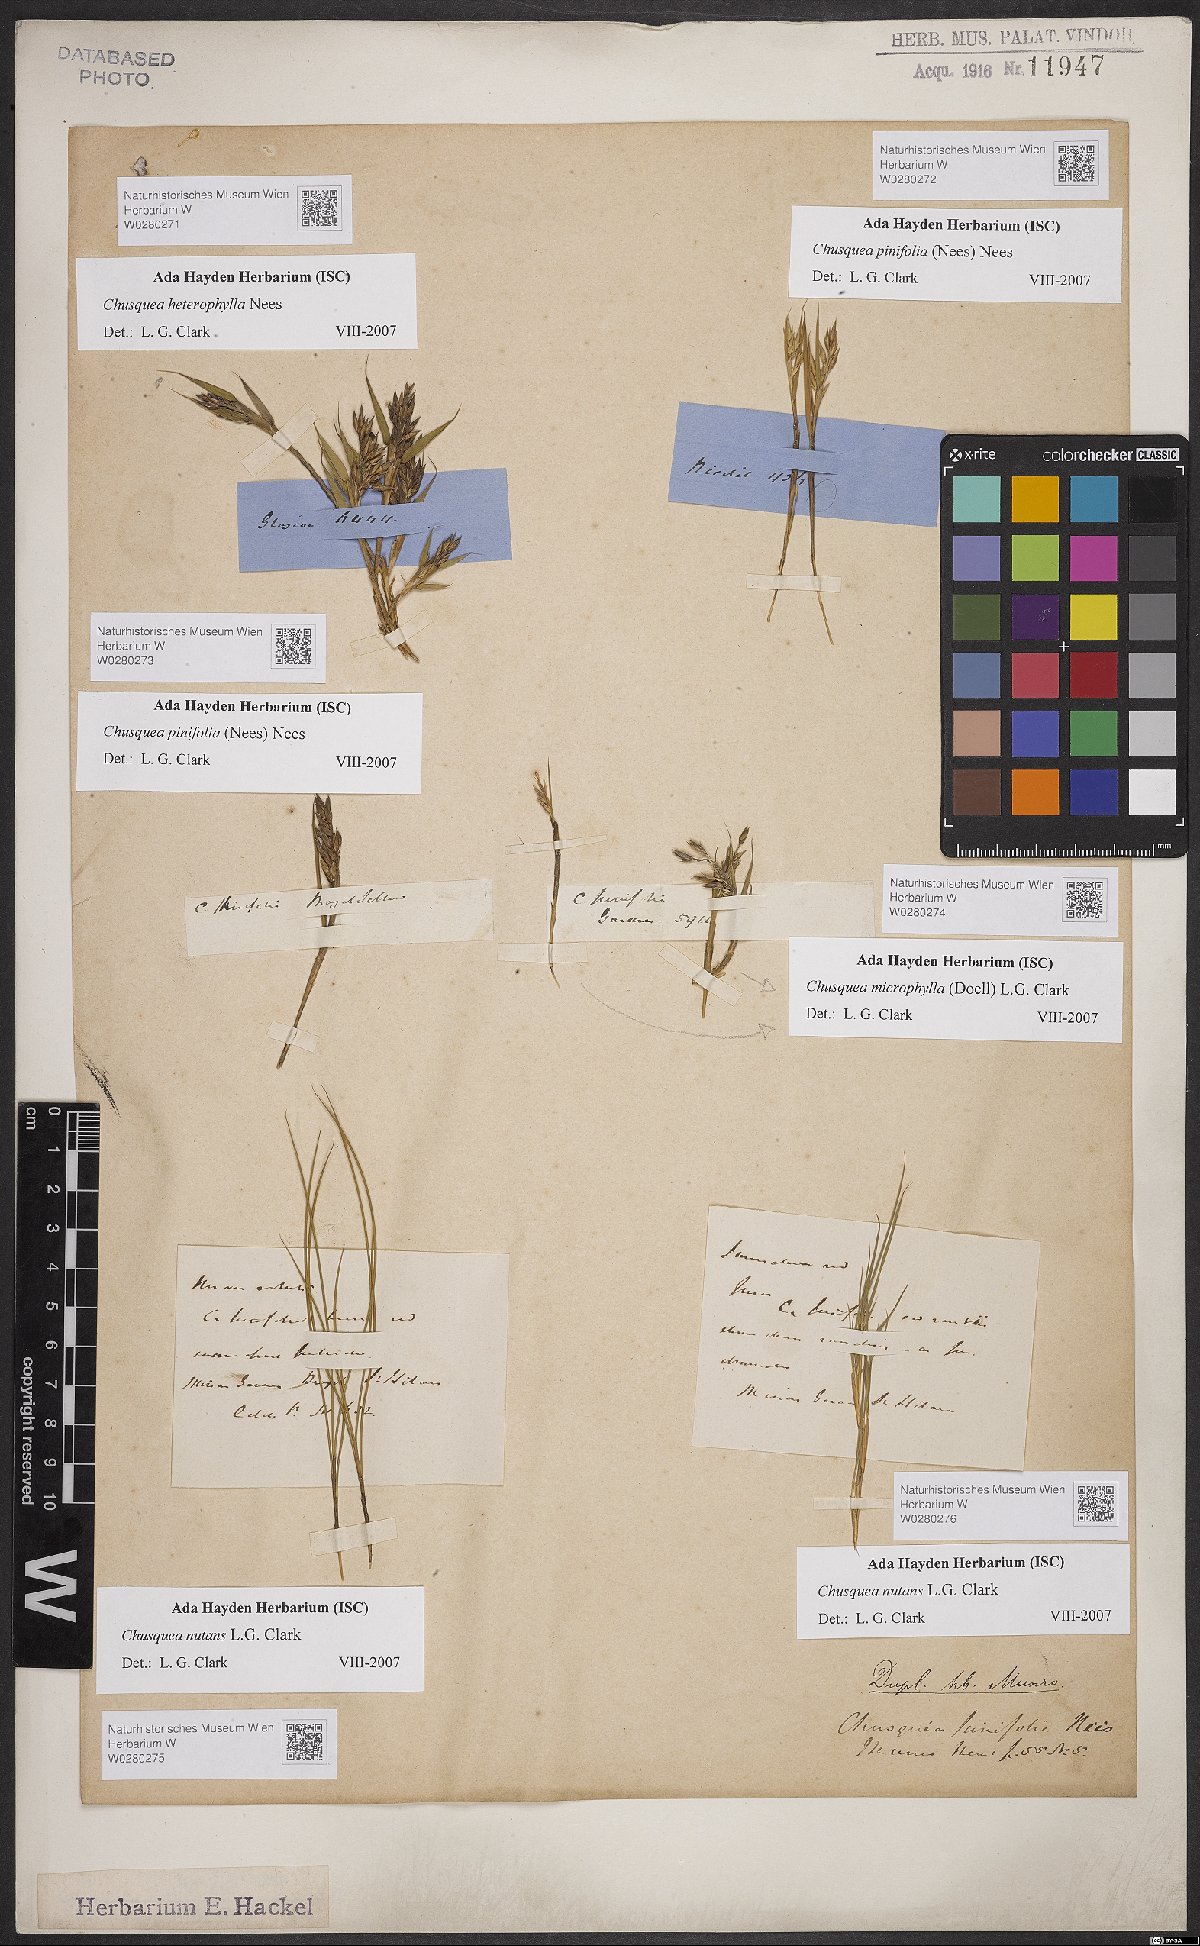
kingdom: Plantae
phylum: Tracheophyta
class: Liliopsida
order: Poales
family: Poaceae
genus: Chusquea
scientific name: Chusquea nutans
